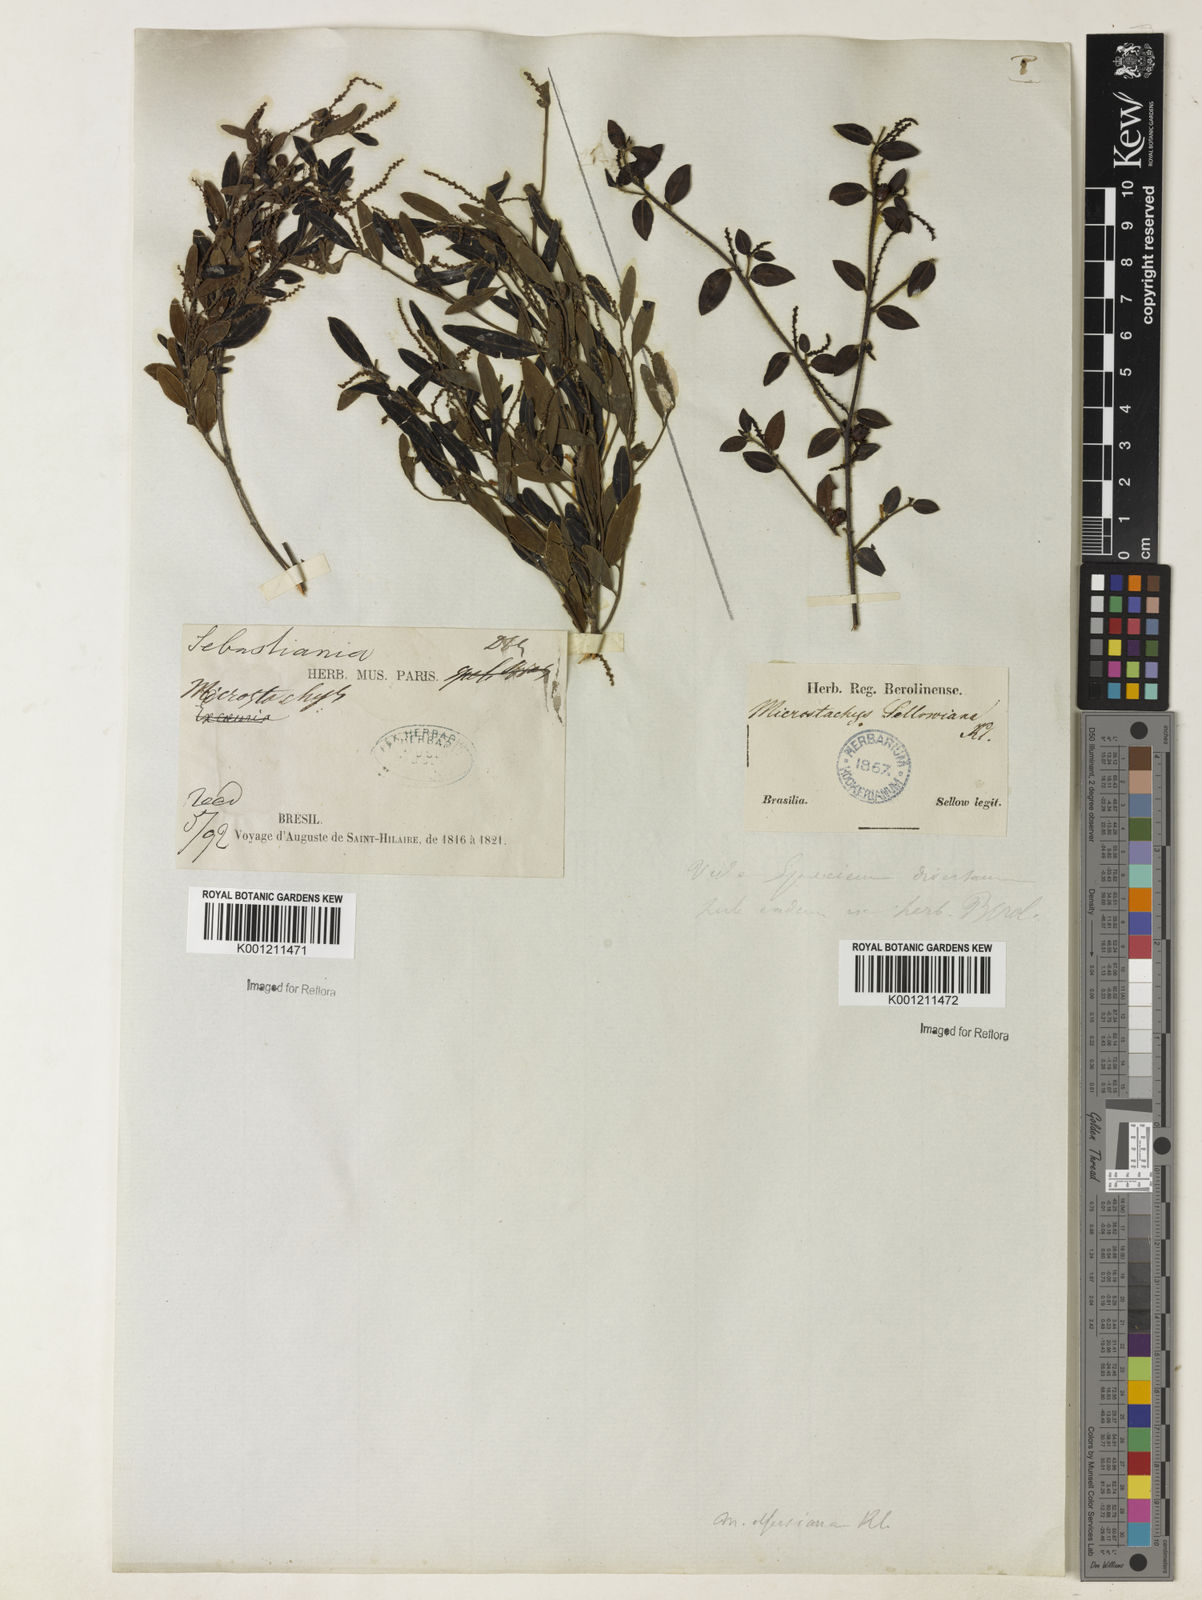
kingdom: Plantae
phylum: Tracheophyta
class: Magnoliopsida
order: Malpighiales
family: Euphorbiaceae
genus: Microstachys
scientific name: Microstachys glandulosa
